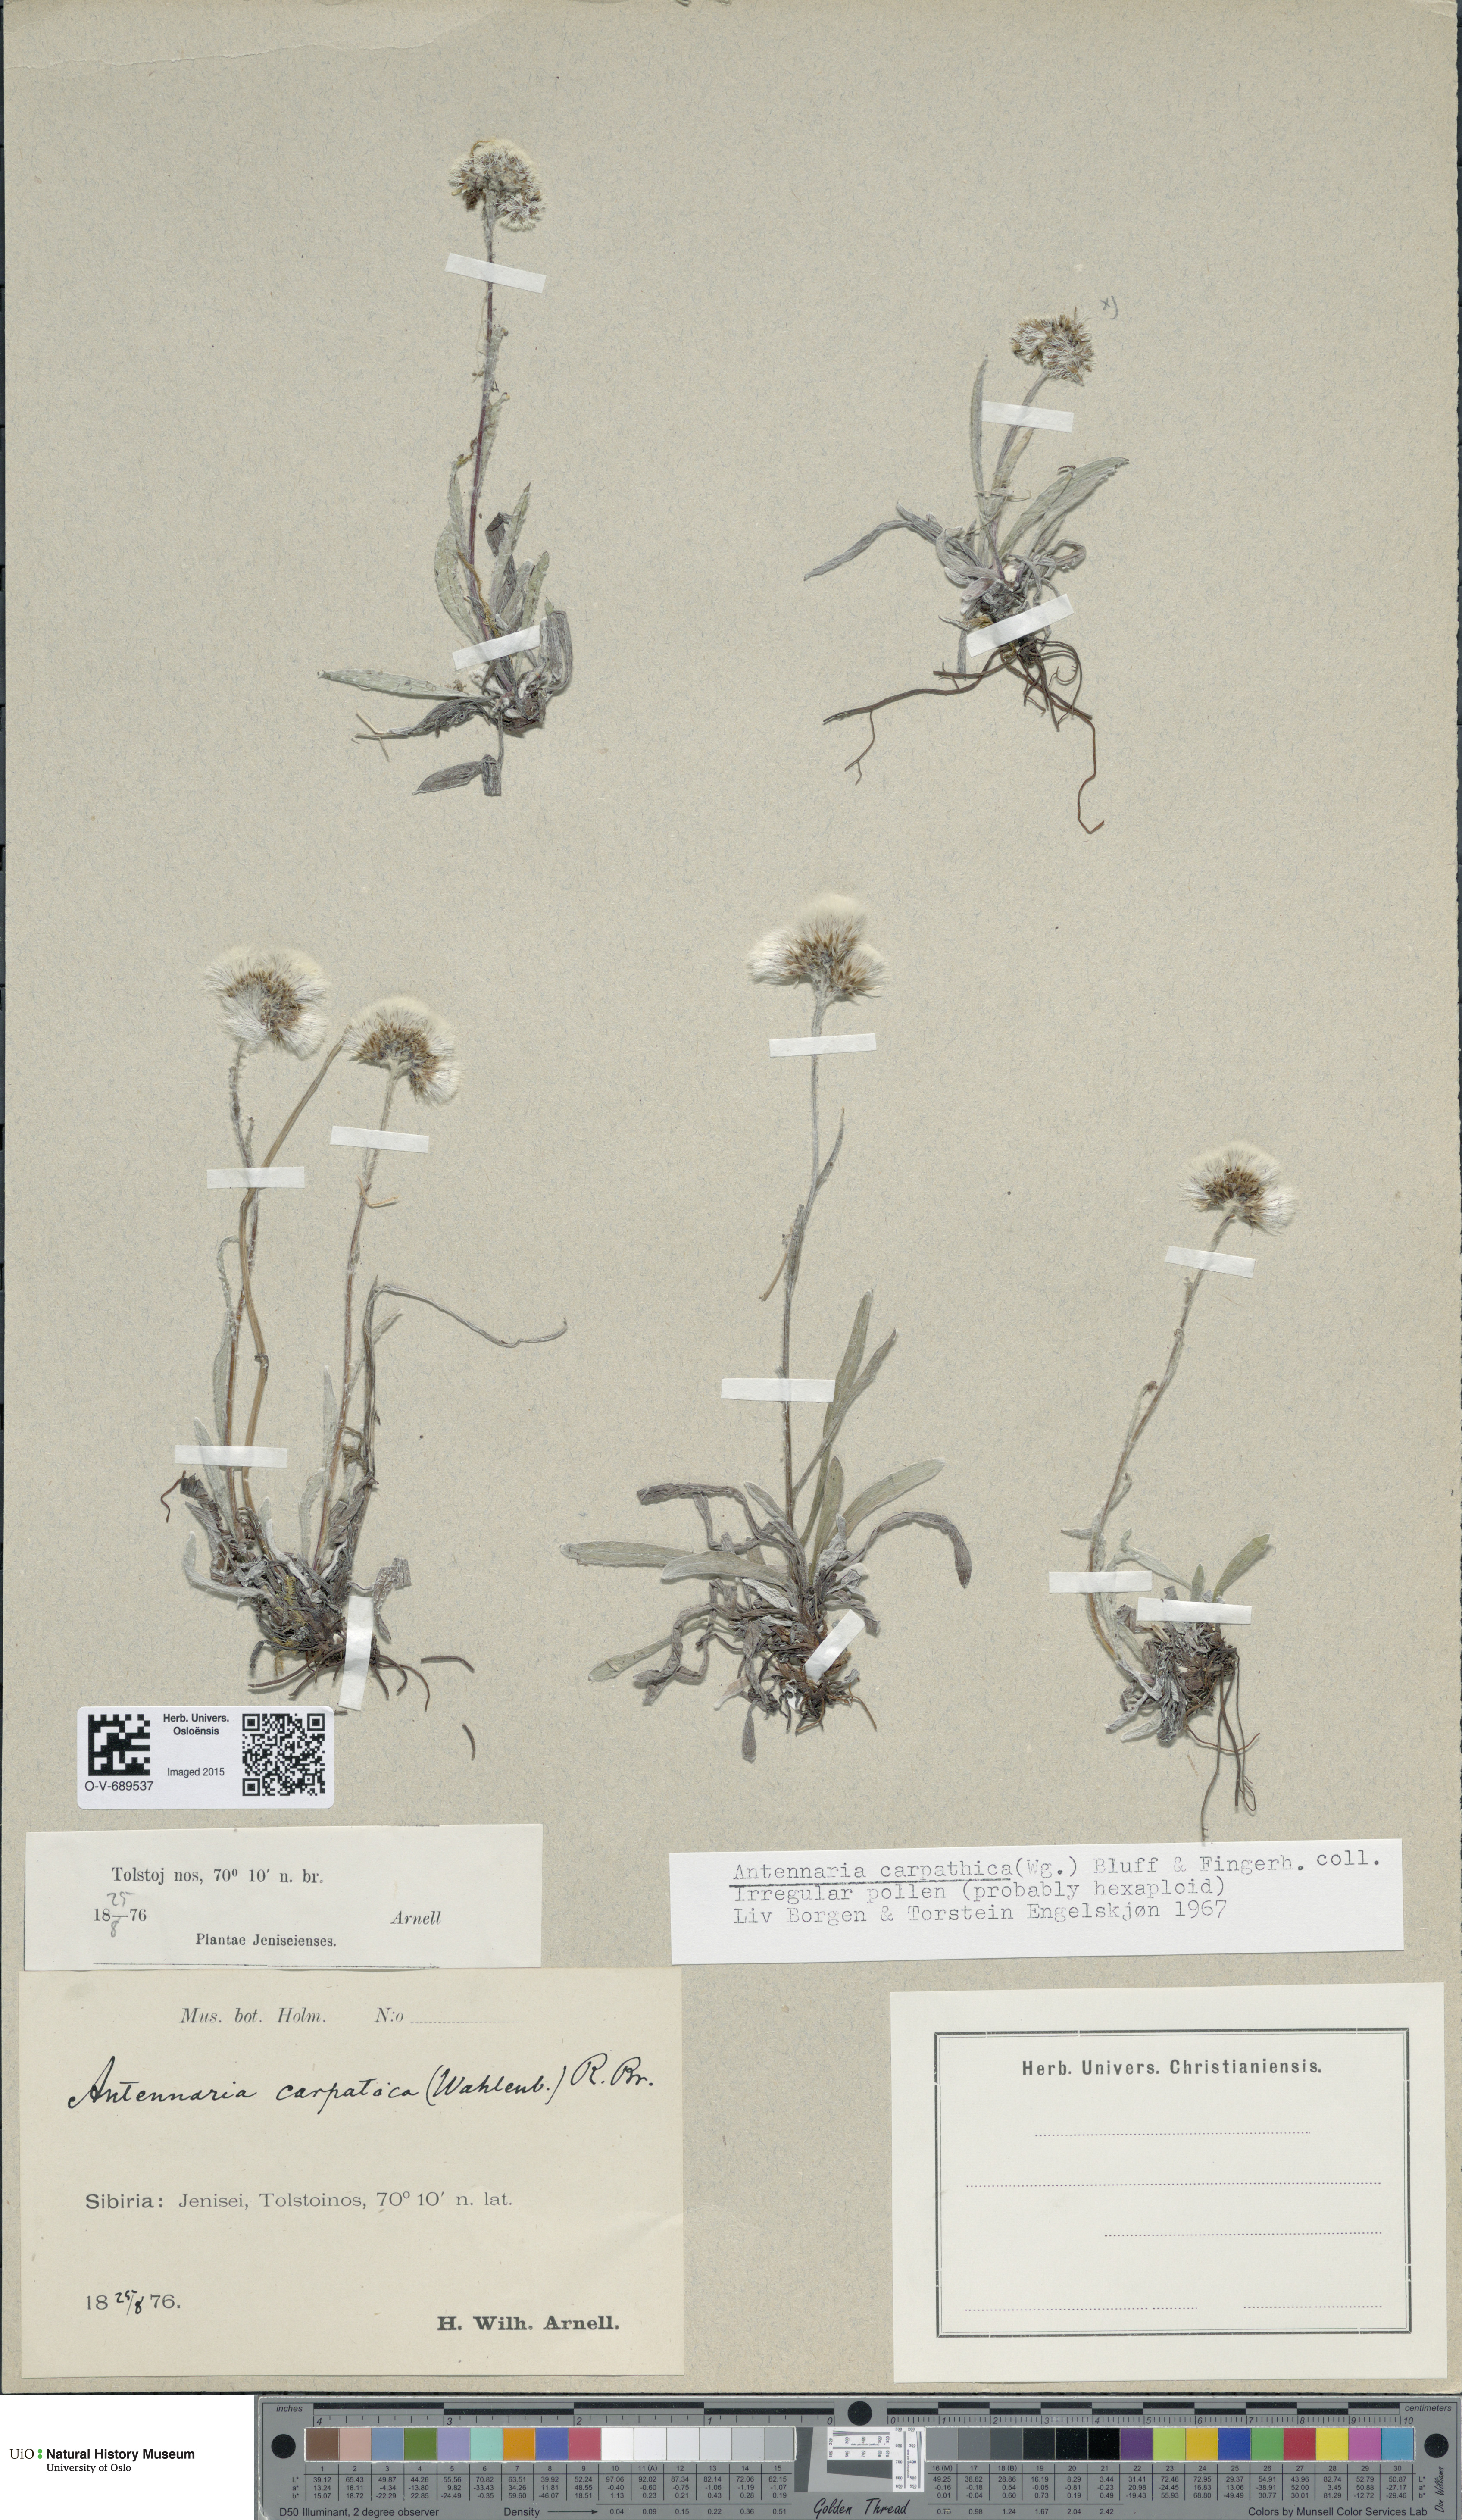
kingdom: Plantae
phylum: Tracheophyta
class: Magnoliopsida
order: Asterales
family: Asteraceae
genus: Antennaria
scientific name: Antennaria carpatica
